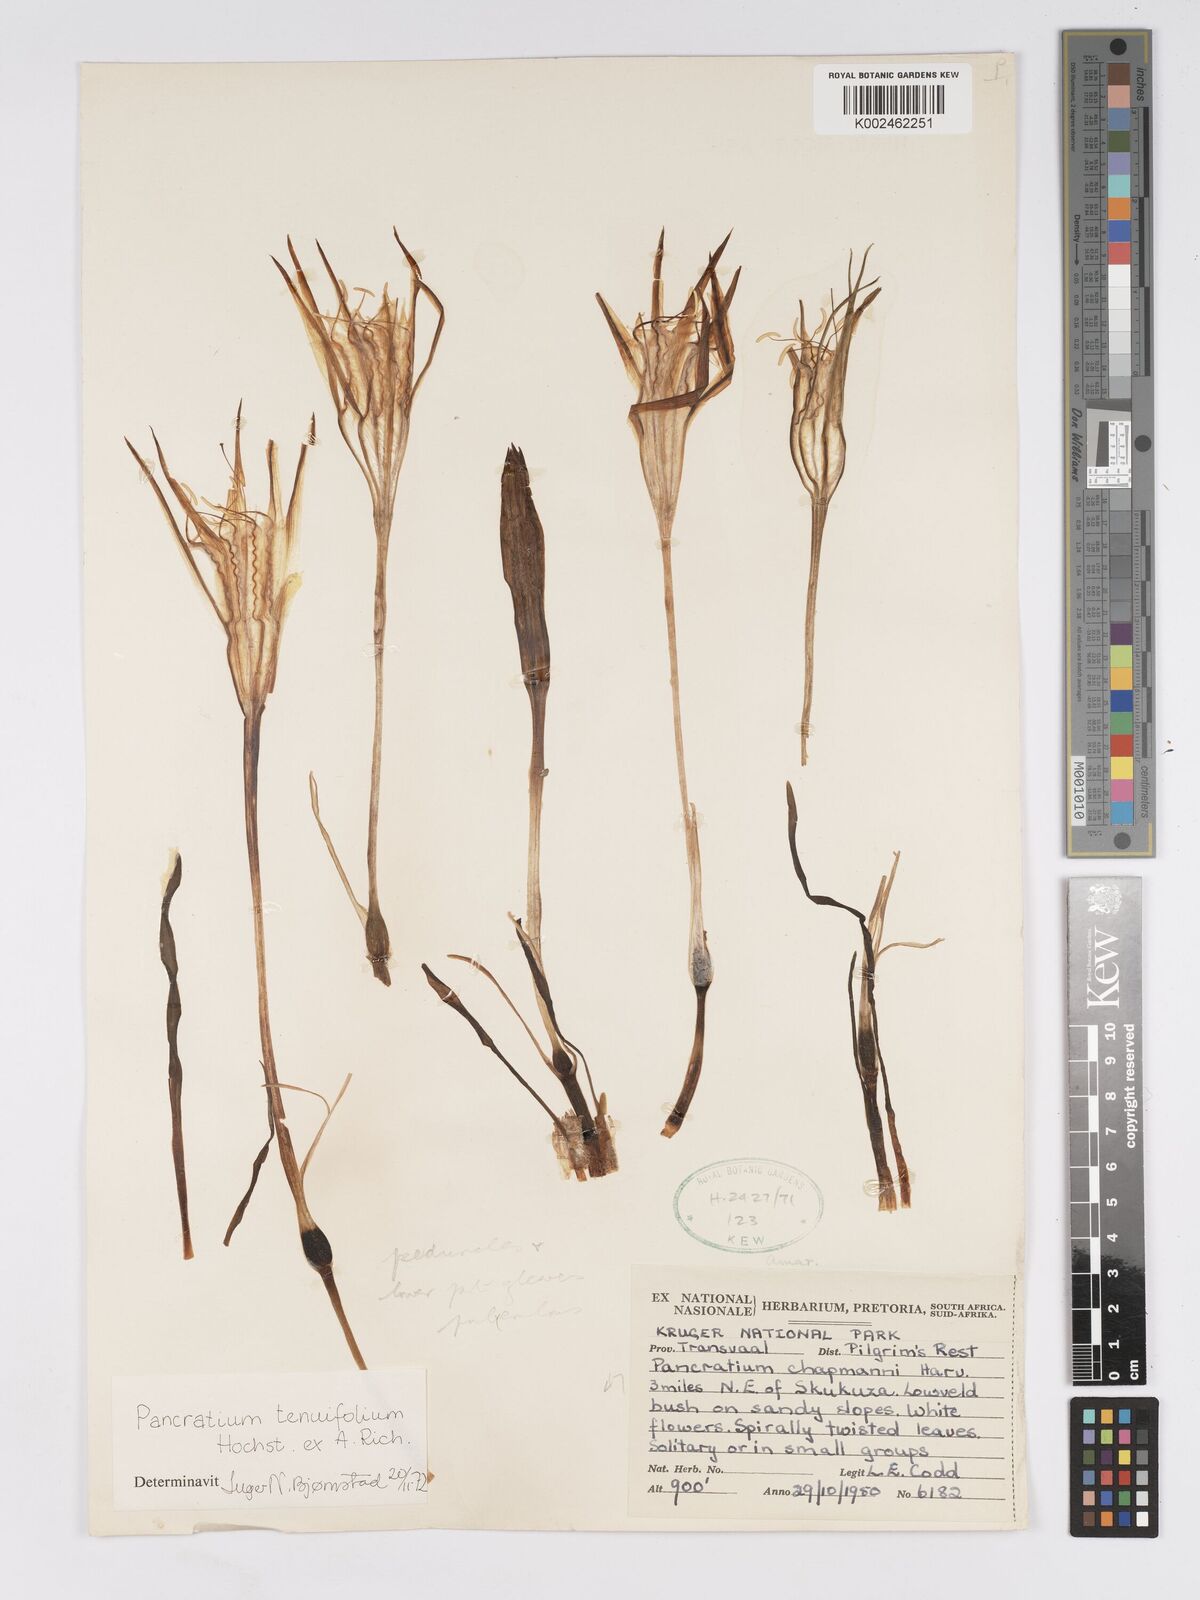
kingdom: Plantae
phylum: Tracheophyta
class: Liliopsida
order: Asparagales
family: Amaryllidaceae
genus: Pancratium
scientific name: Pancratium tenuifolium
